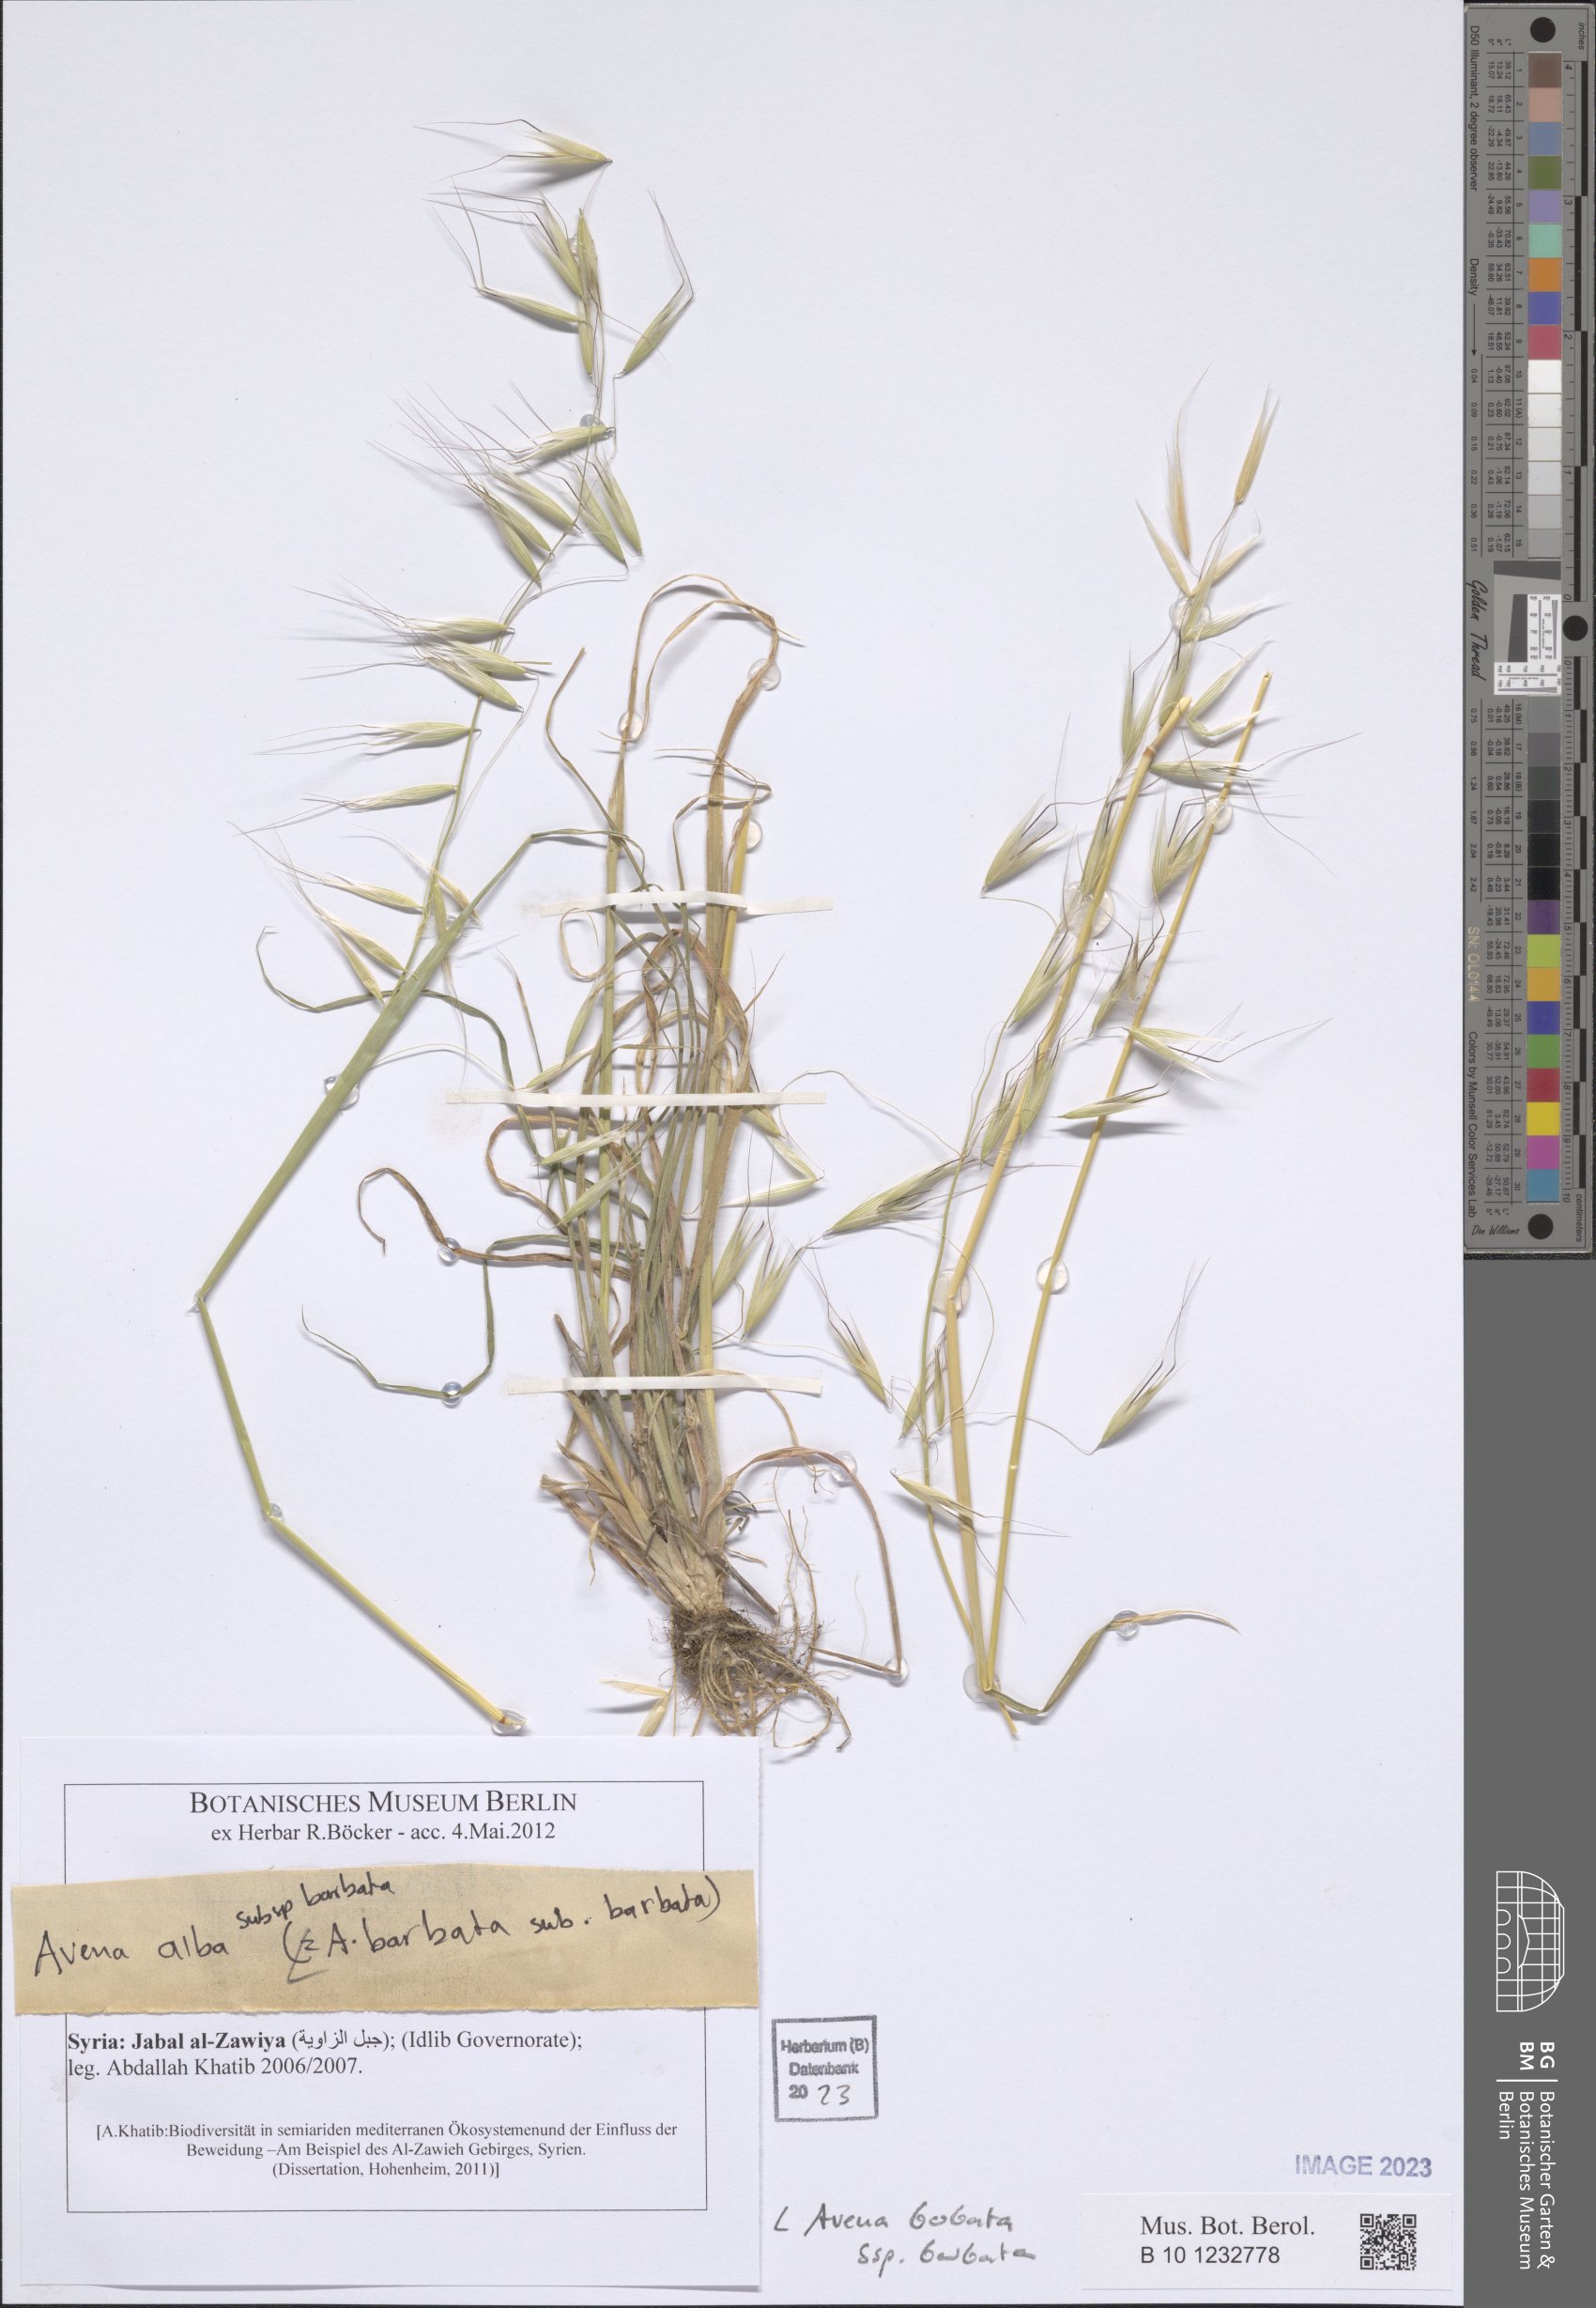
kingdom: Plantae
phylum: Tracheophyta
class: Liliopsida
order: Poales
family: Poaceae
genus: Avena
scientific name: Avena barbata
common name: Slender oat
